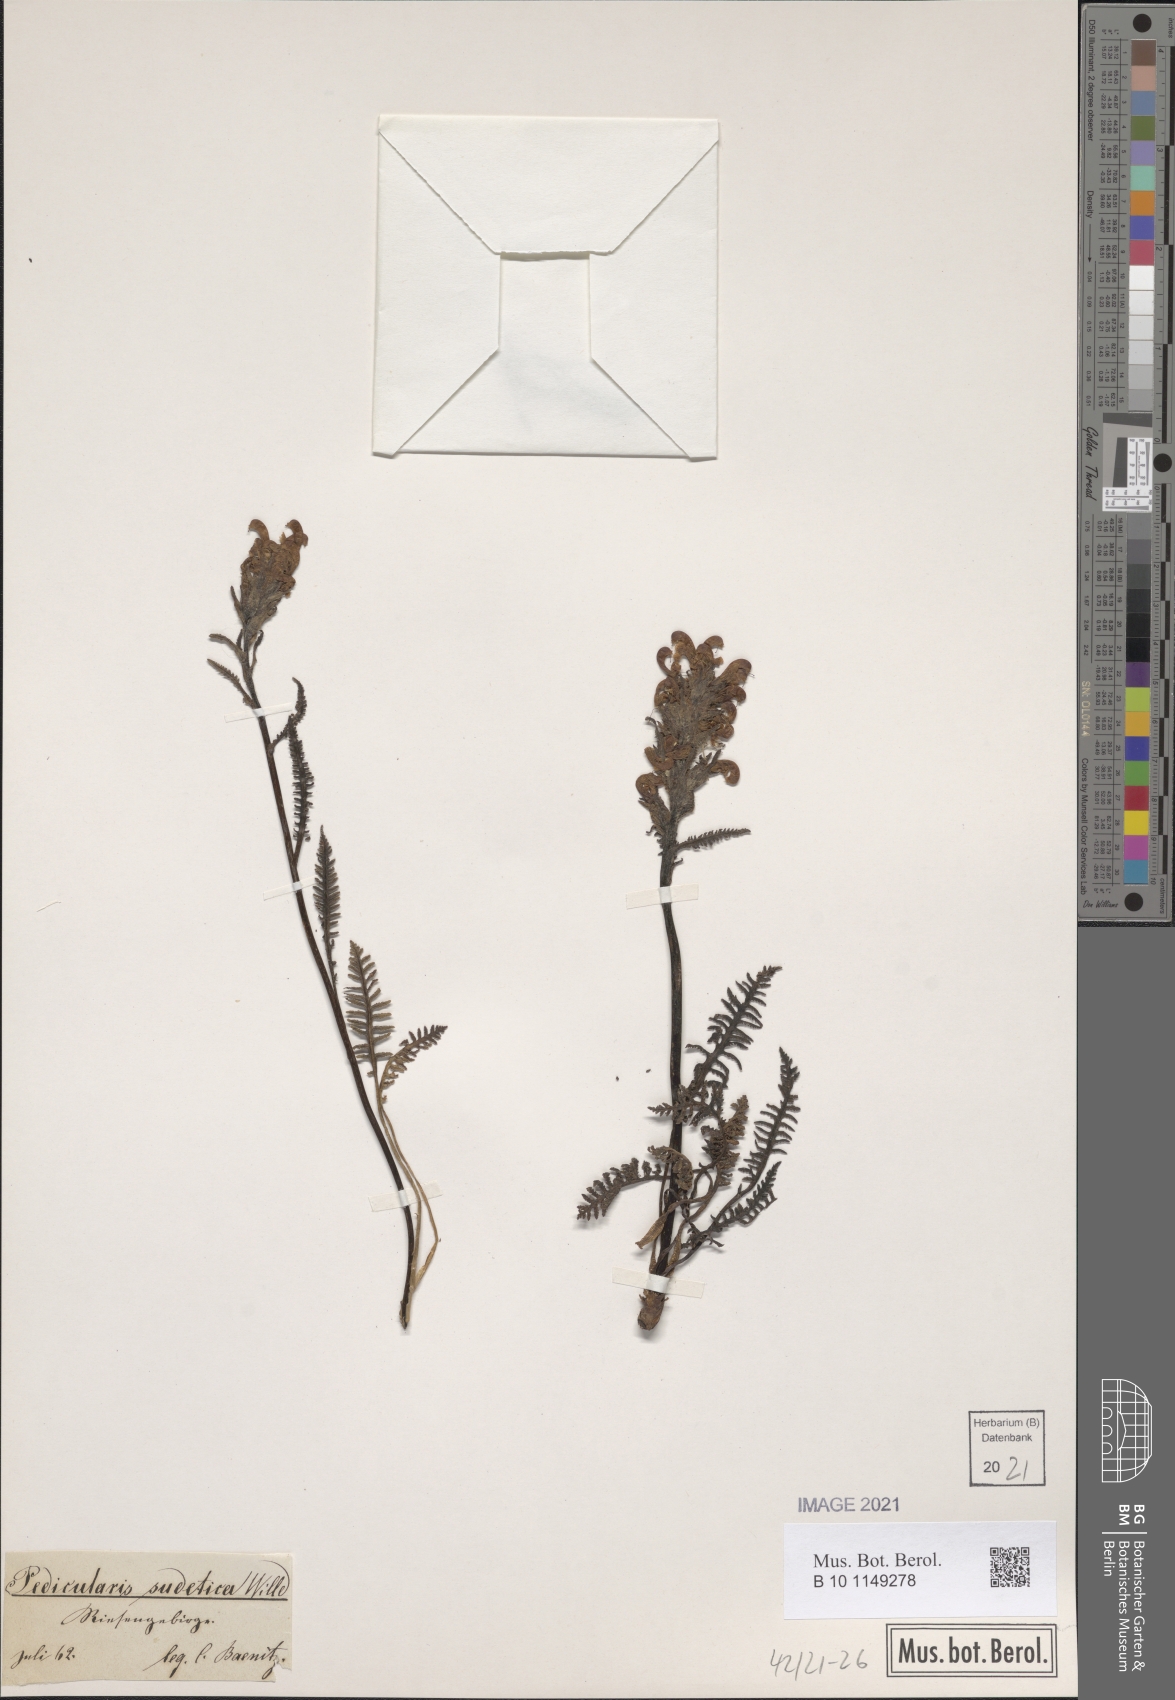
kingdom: Plantae
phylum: Tracheophyta
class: Magnoliopsida
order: Lamiales
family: Orobanchaceae
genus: Pedicularis
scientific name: Pedicularis sudetica
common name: Sudeten lousewort
